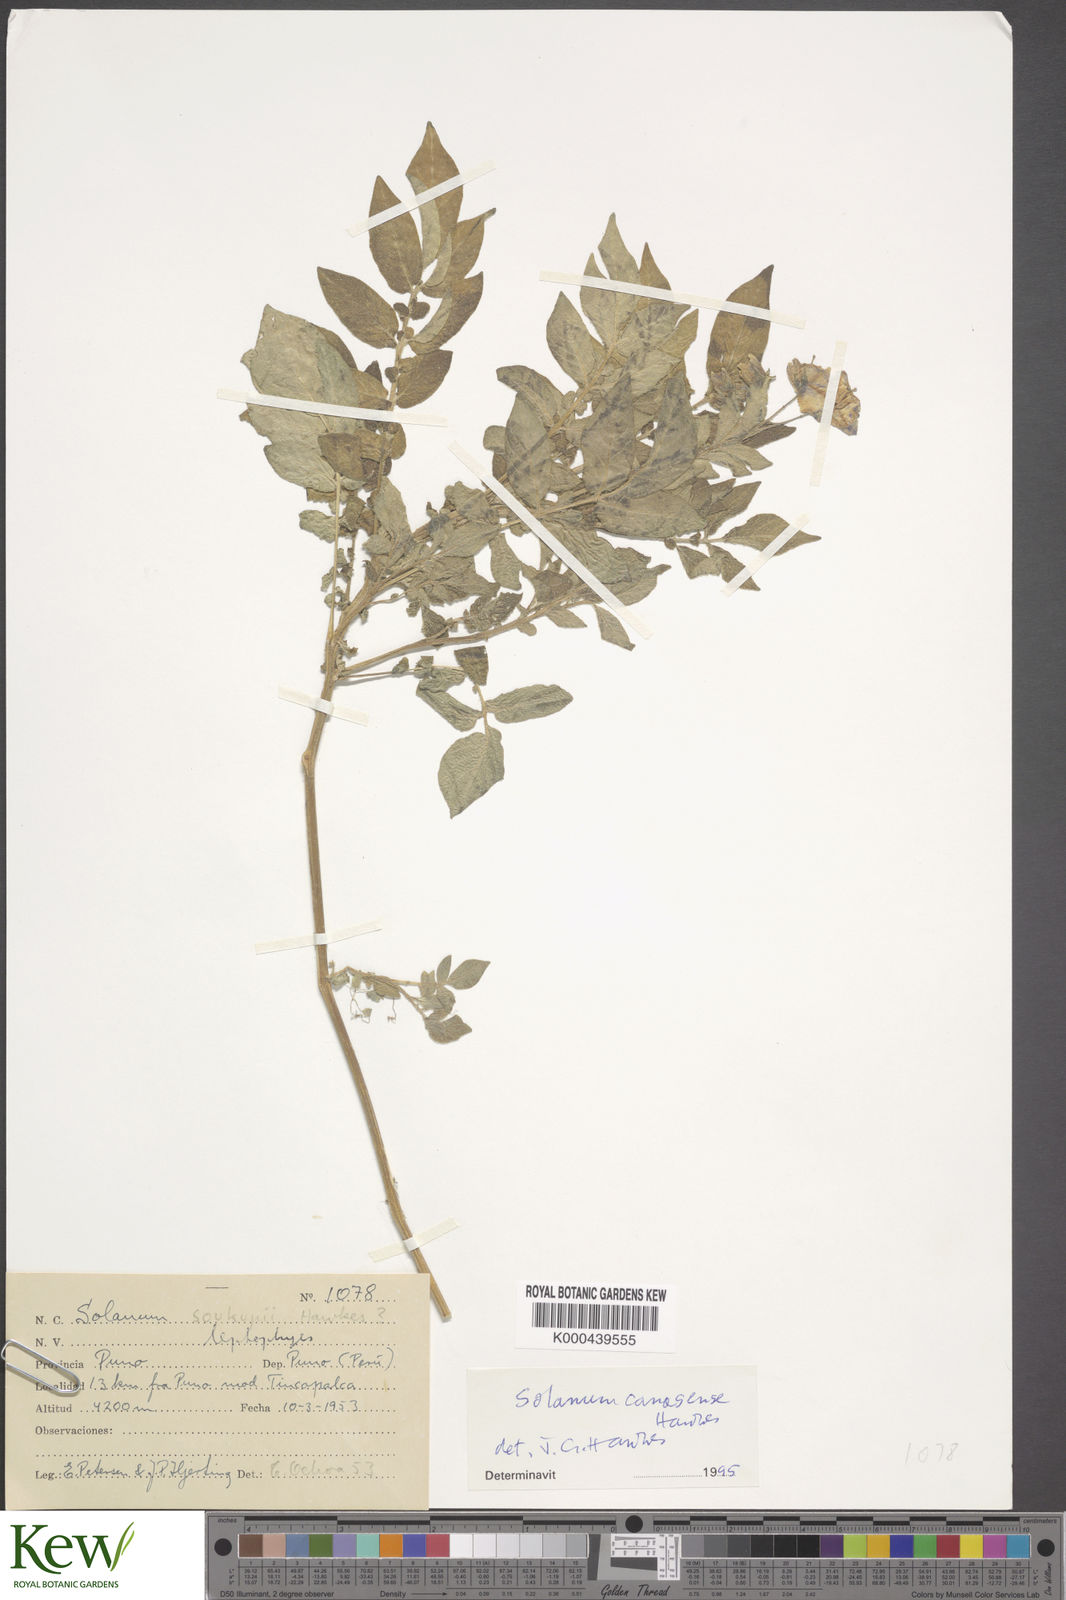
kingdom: Plantae
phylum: Tracheophyta
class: Magnoliopsida
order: Solanales
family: Solanaceae
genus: Solanum
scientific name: Solanum candolleanum
